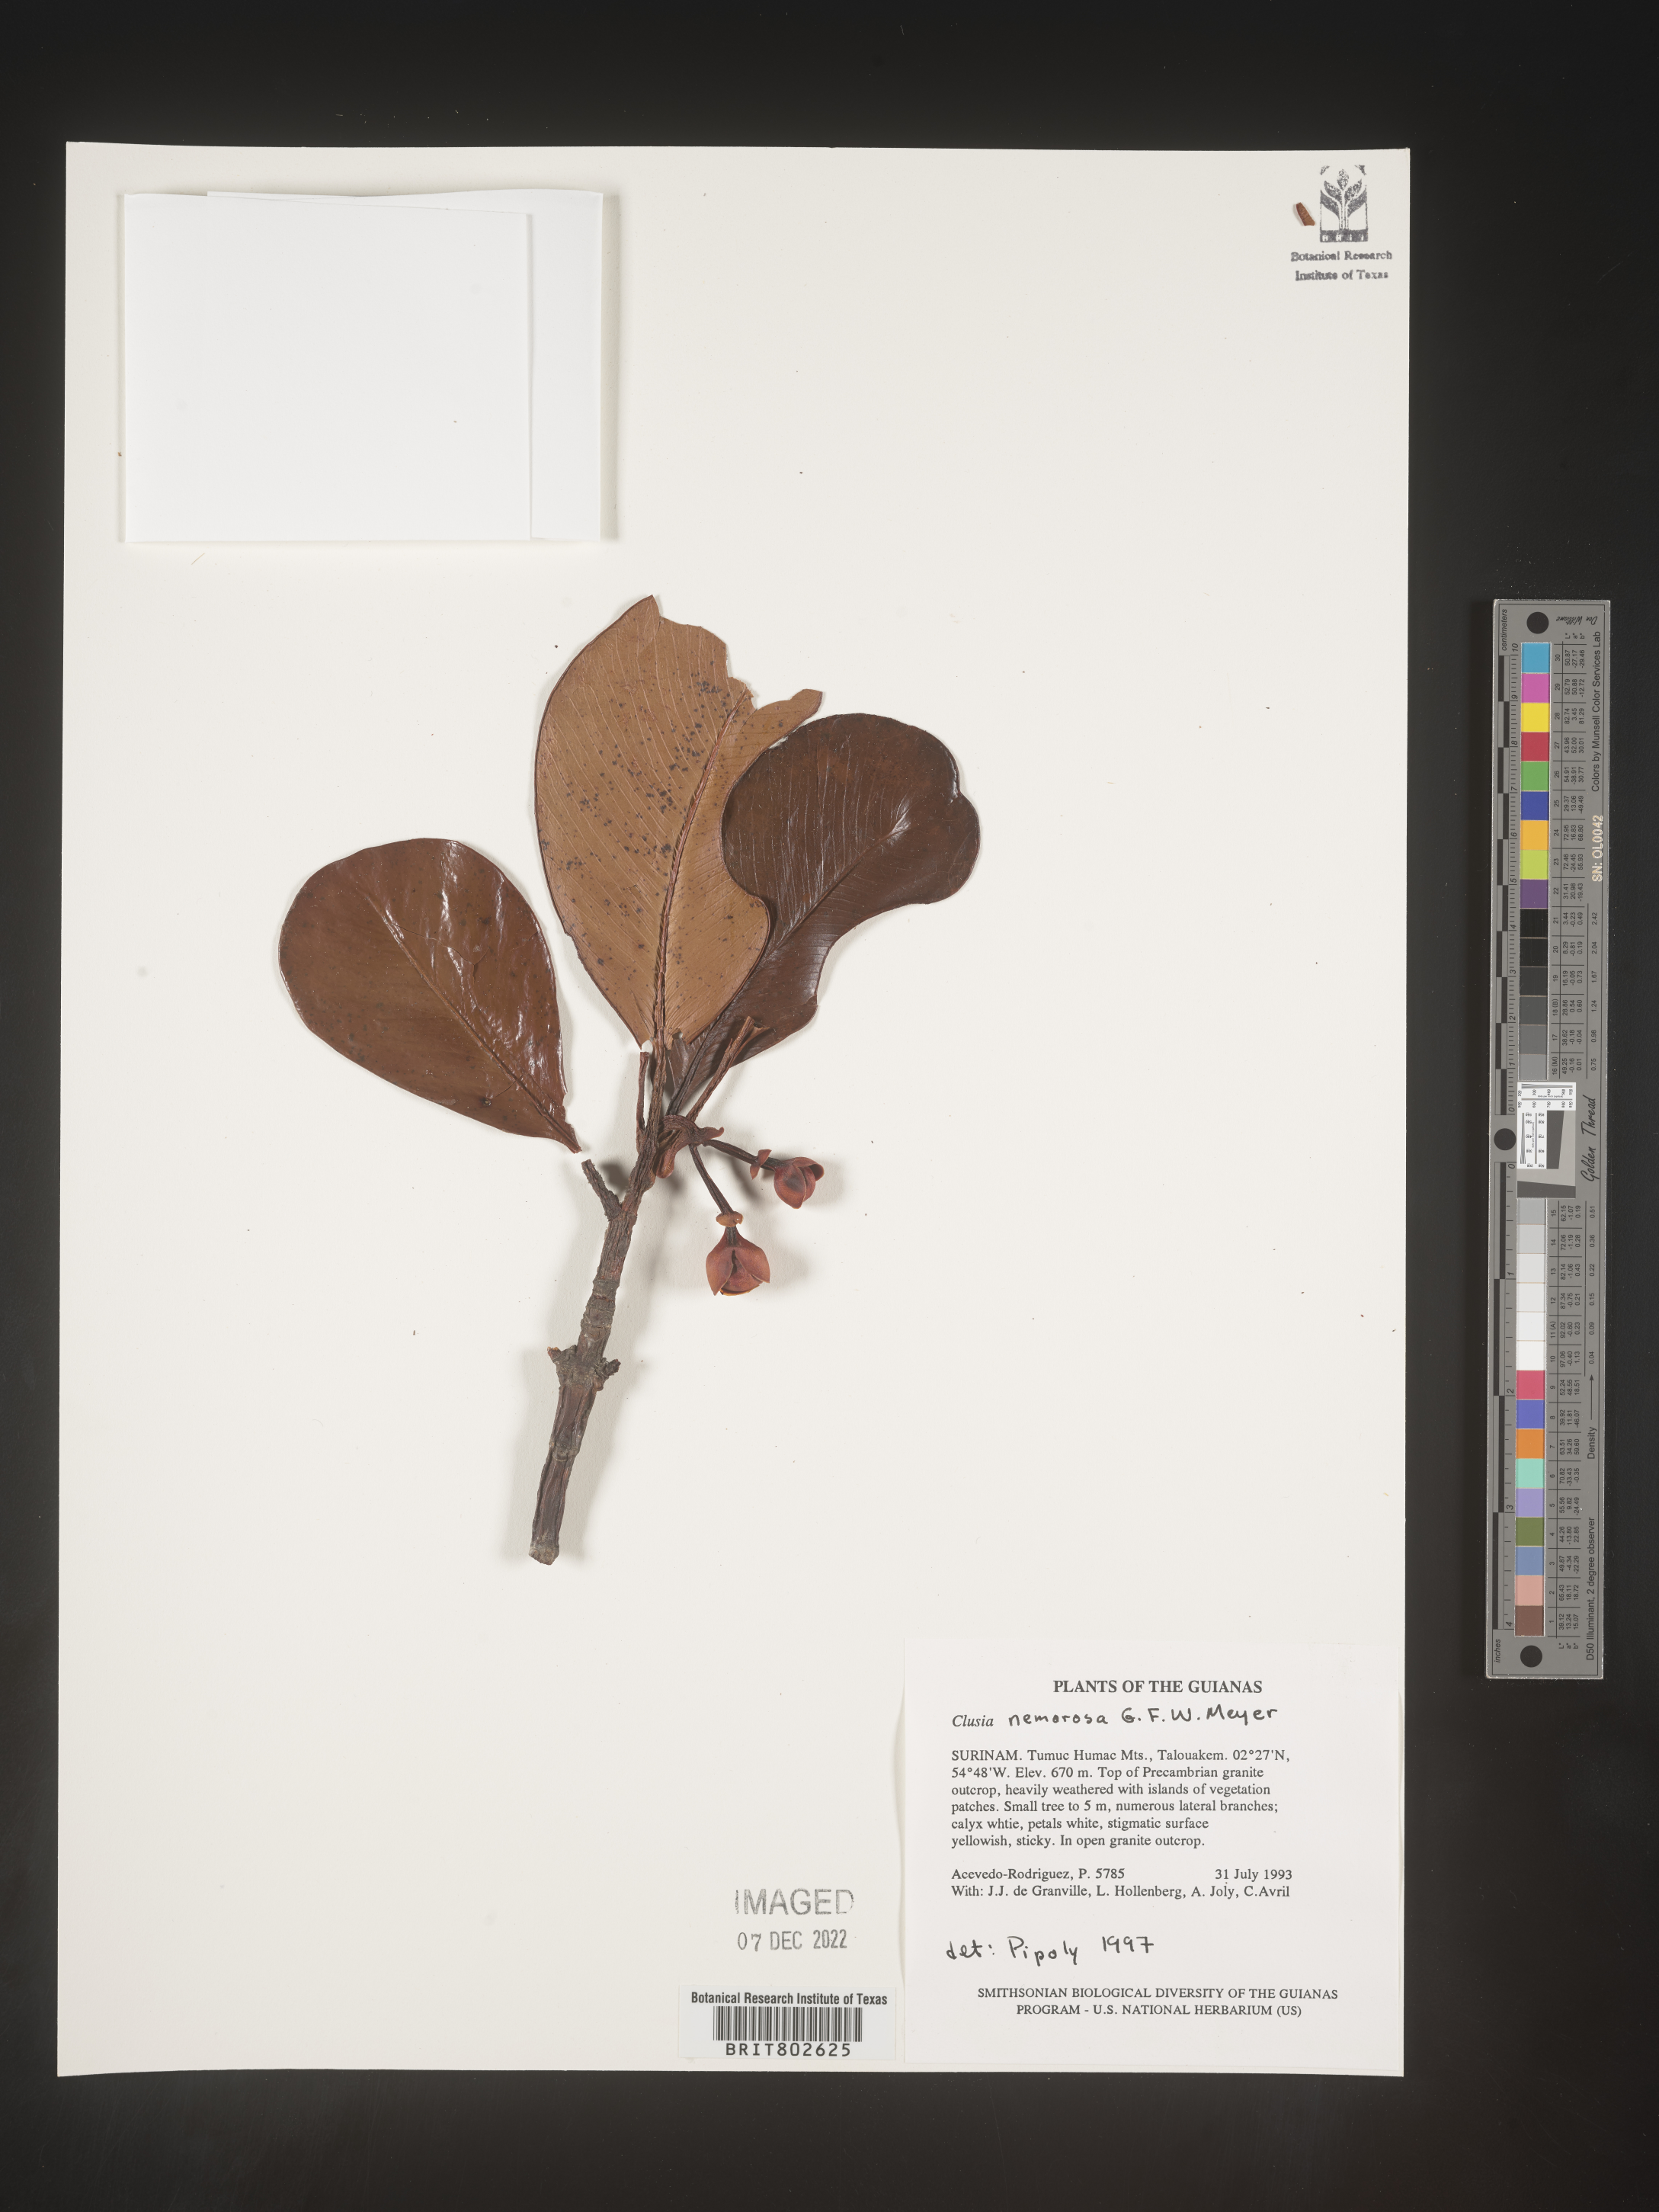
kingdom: Plantae
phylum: Tracheophyta
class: Magnoliopsida
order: Malpighiales
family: Clusiaceae
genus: Clusia
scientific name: Clusia nemorosa
